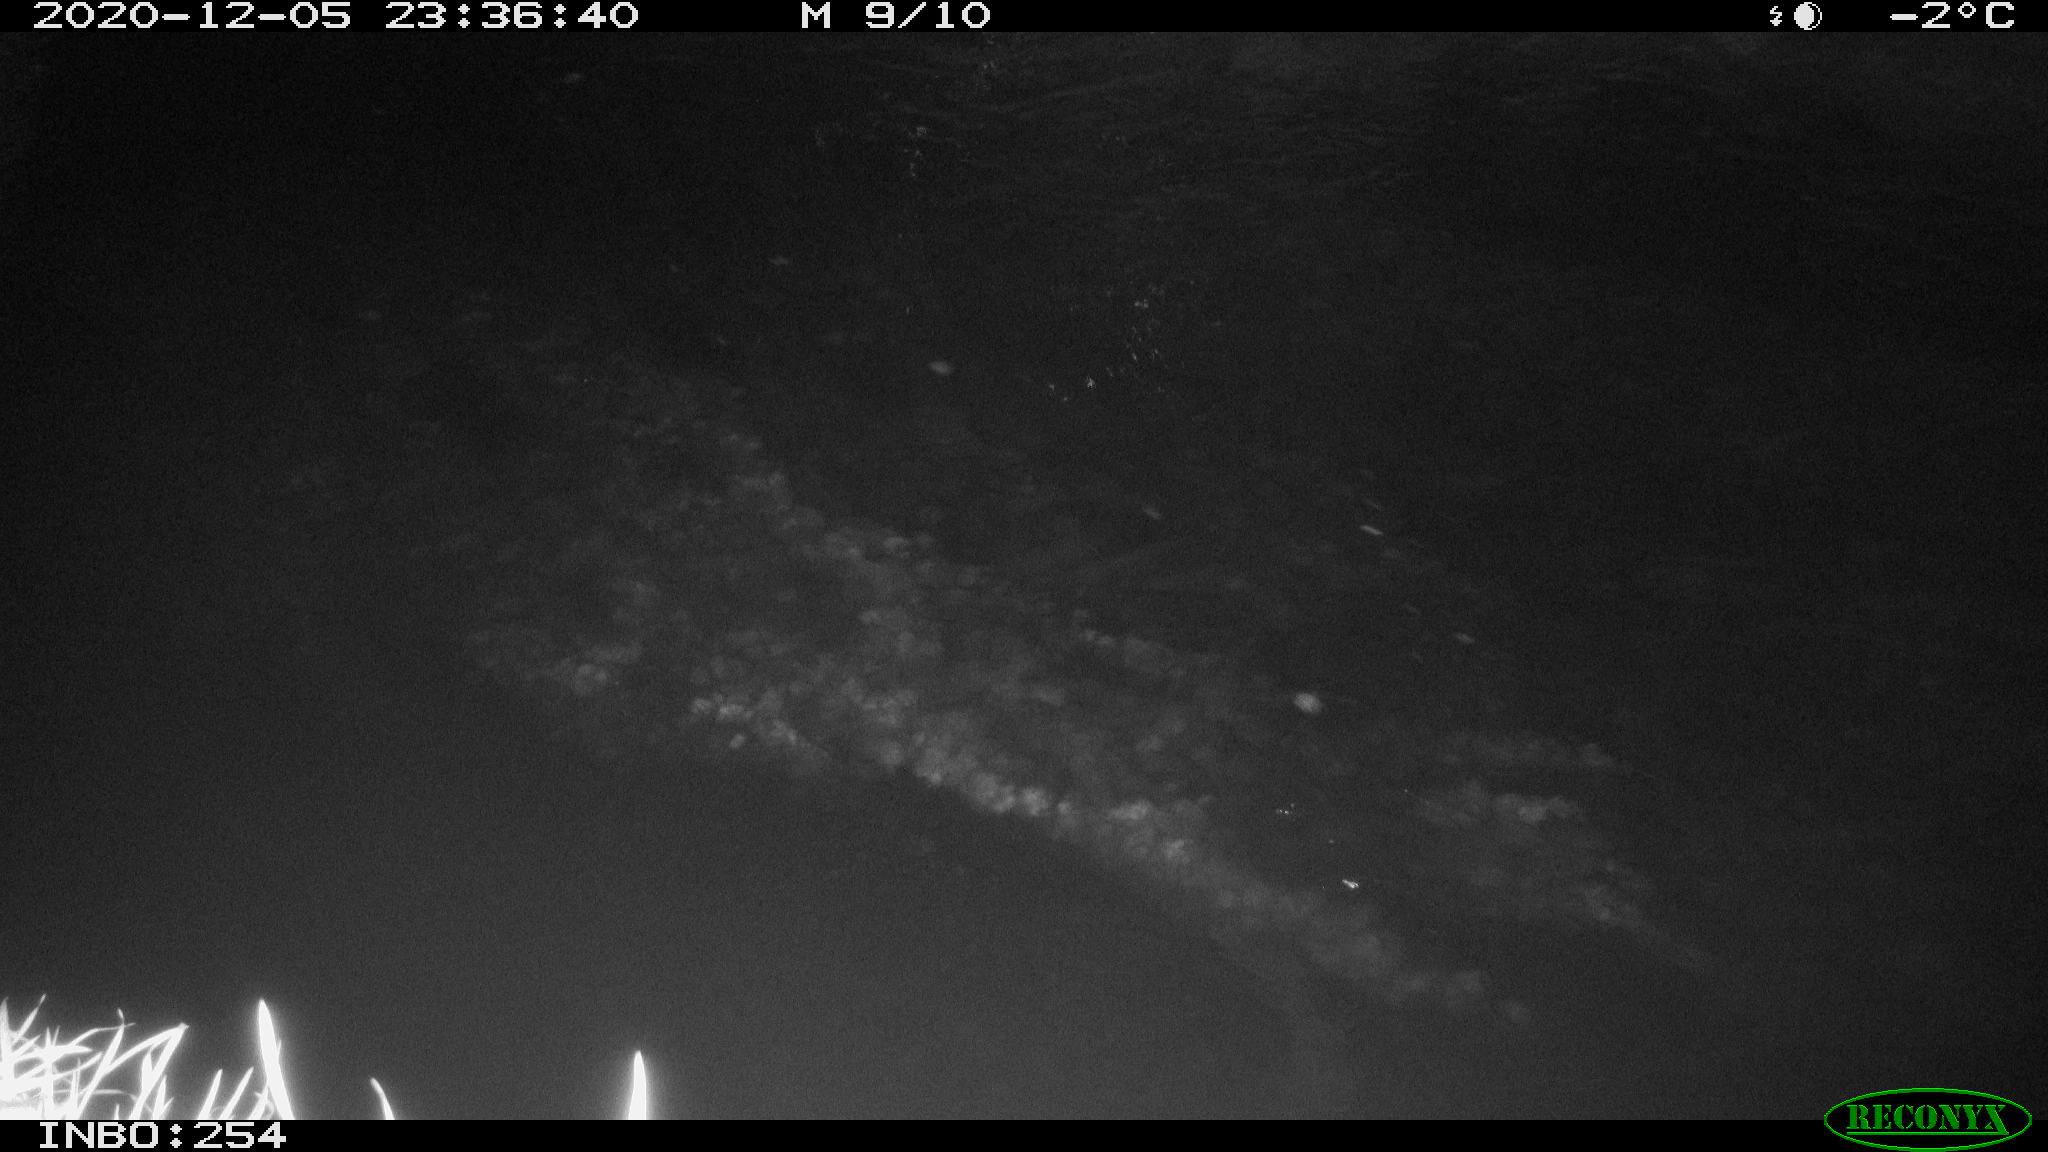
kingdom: Animalia
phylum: Chordata
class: Aves
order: Anseriformes
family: Anatidae
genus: Anas
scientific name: Anas platyrhynchos
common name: Mallard
